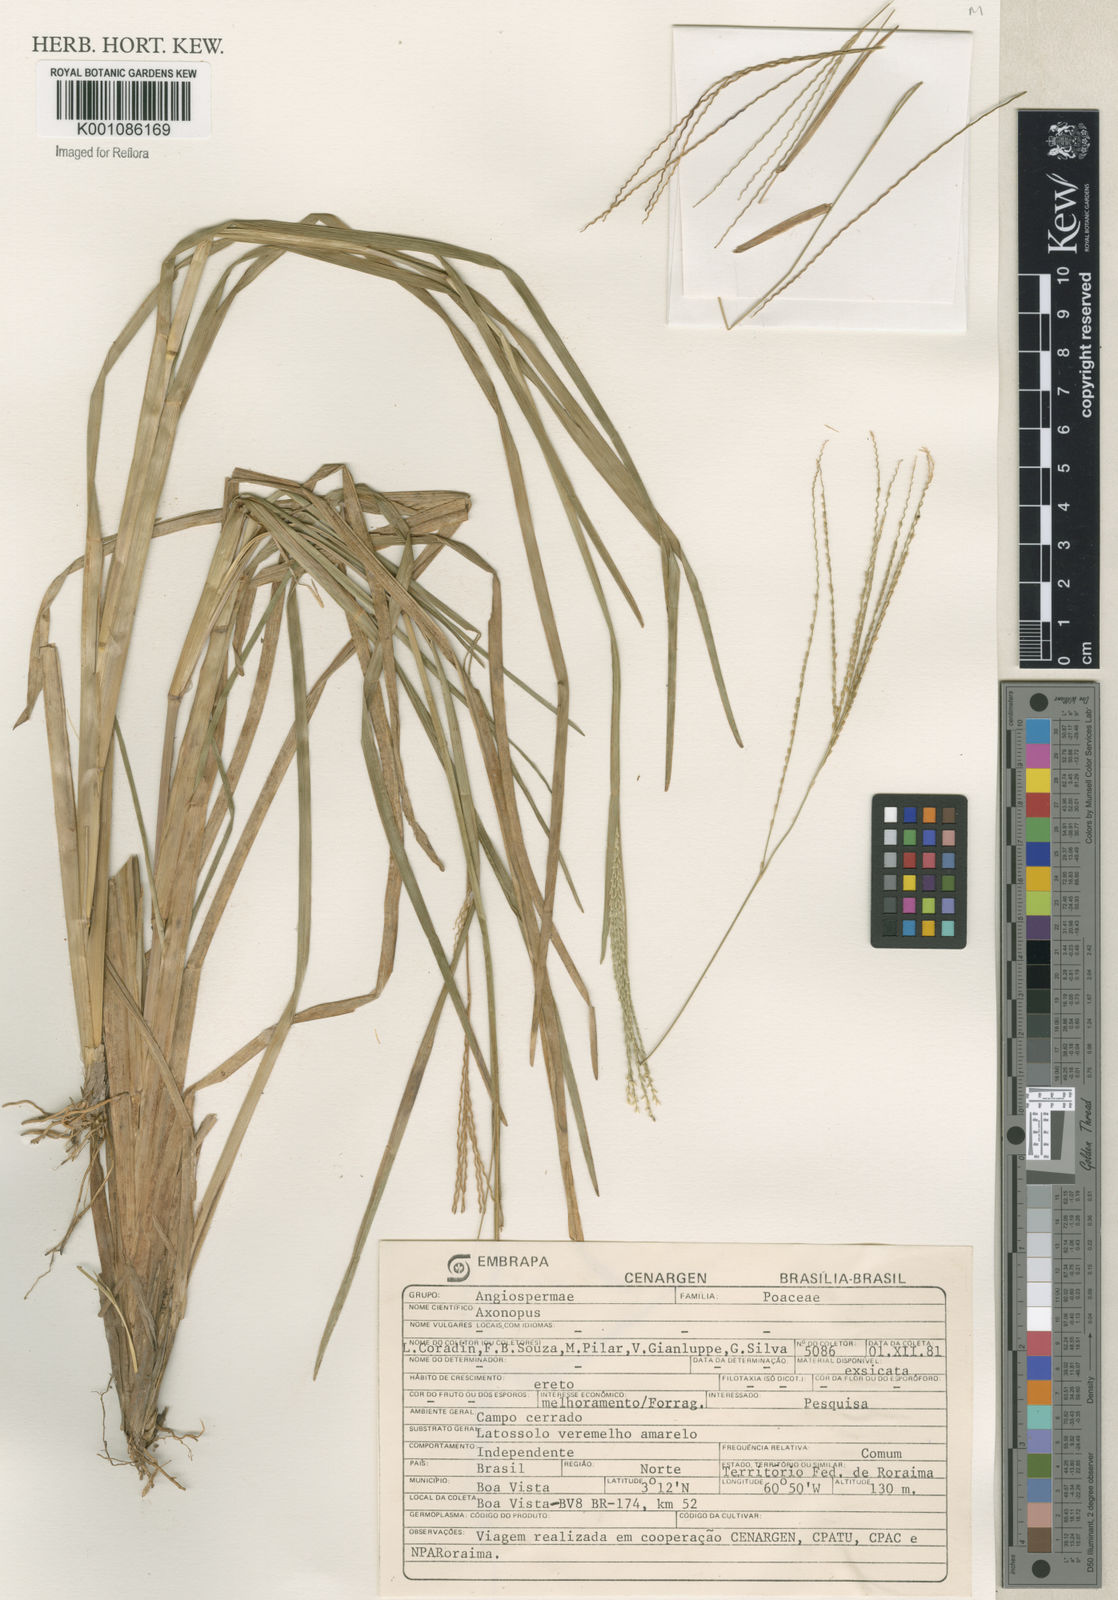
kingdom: Plantae
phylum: Tracheophyta
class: Liliopsida
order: Poales
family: Poaceae
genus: Axonopus
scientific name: Axonopus
